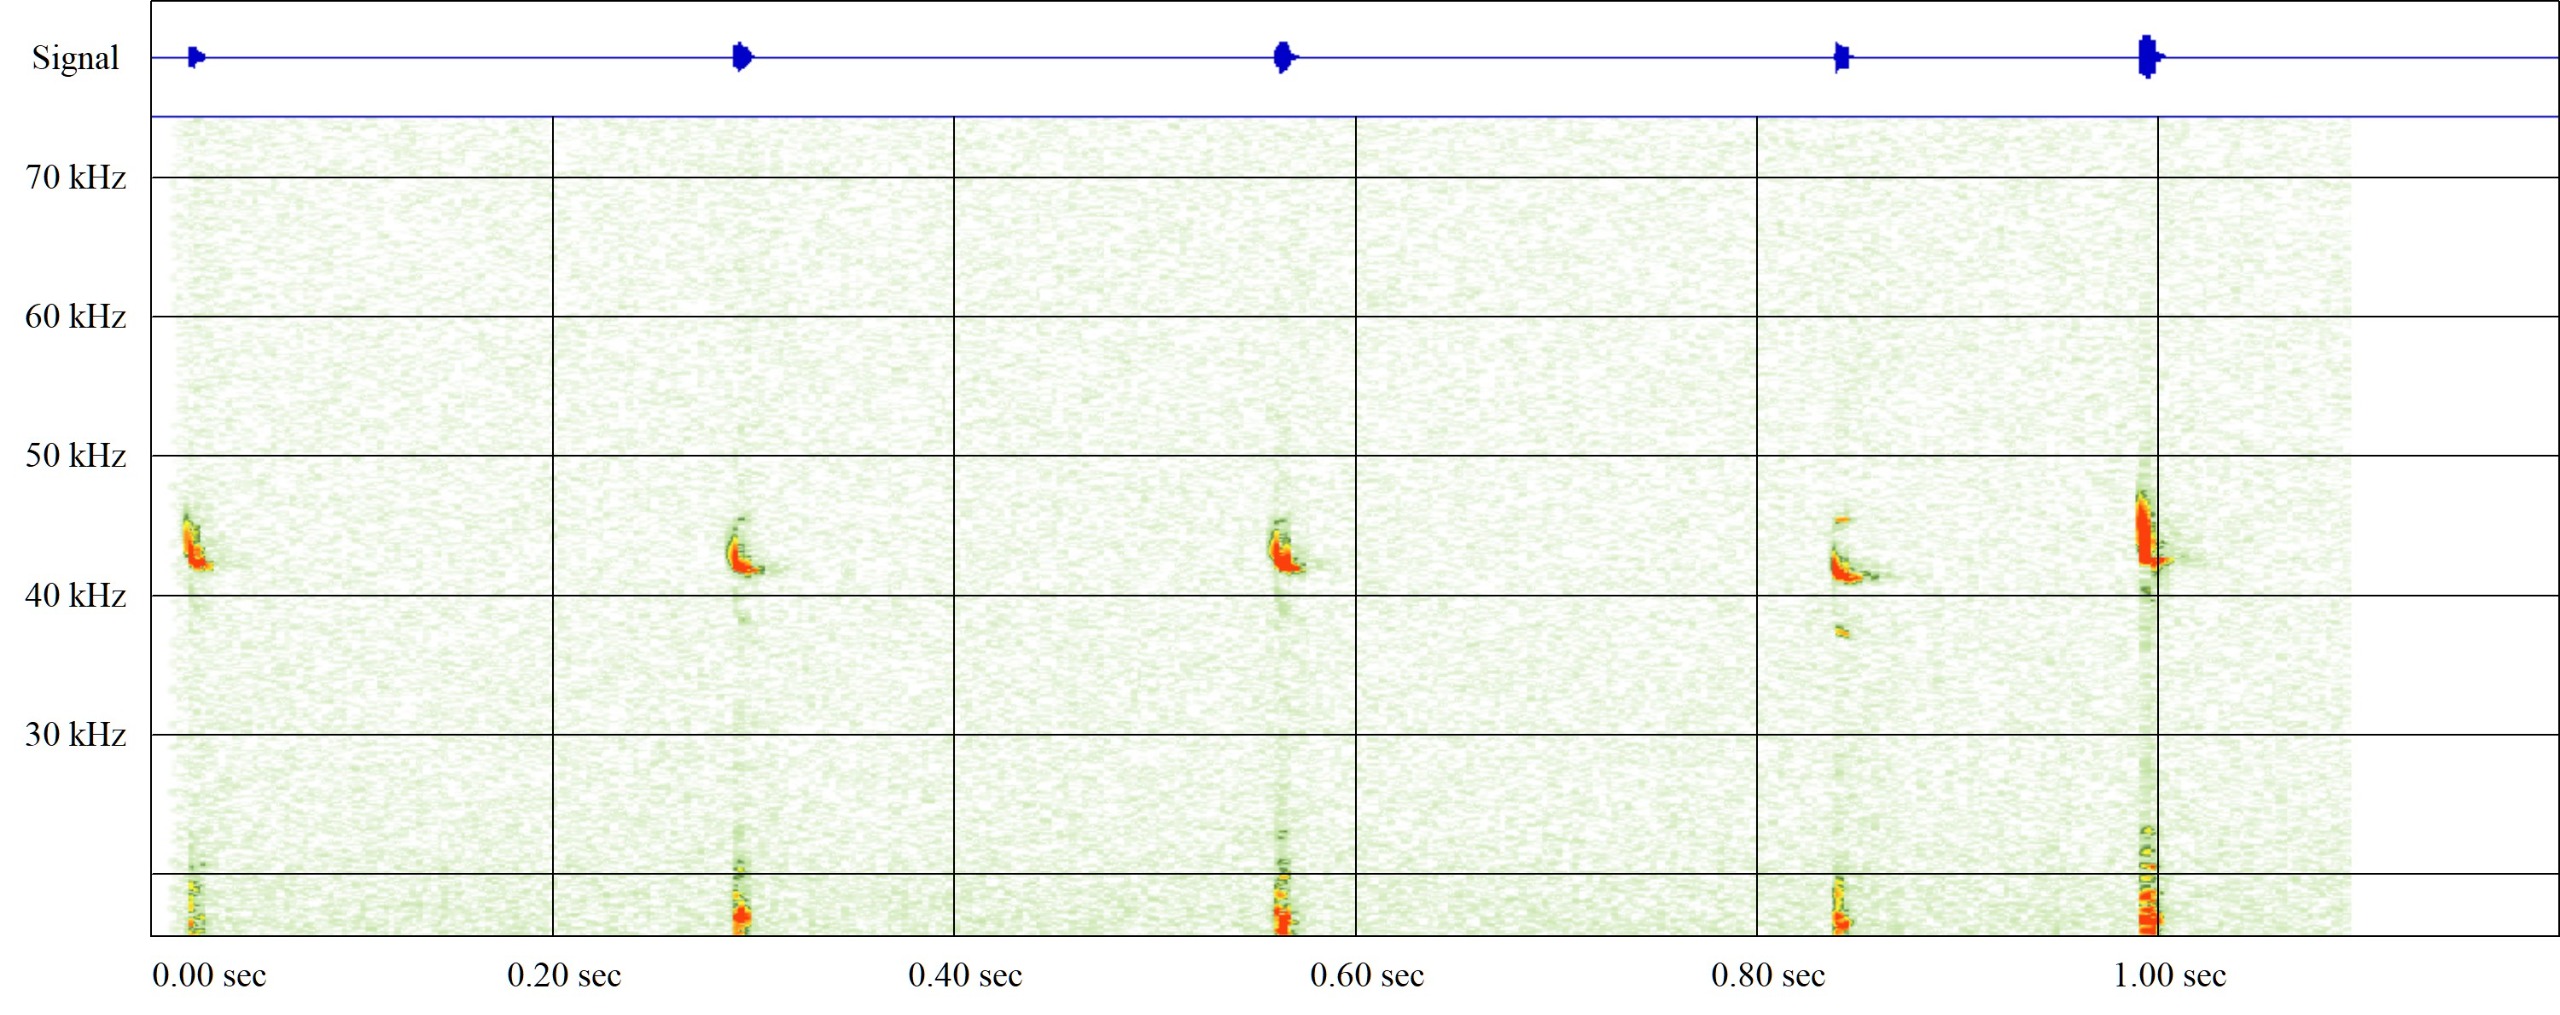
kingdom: Animalia
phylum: Chordata
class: Mammalia
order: Chiroptera
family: Vespertilionidae
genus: Pipistrellus
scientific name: Pipistrellus pipistrellus
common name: Pipistrelflagermus
